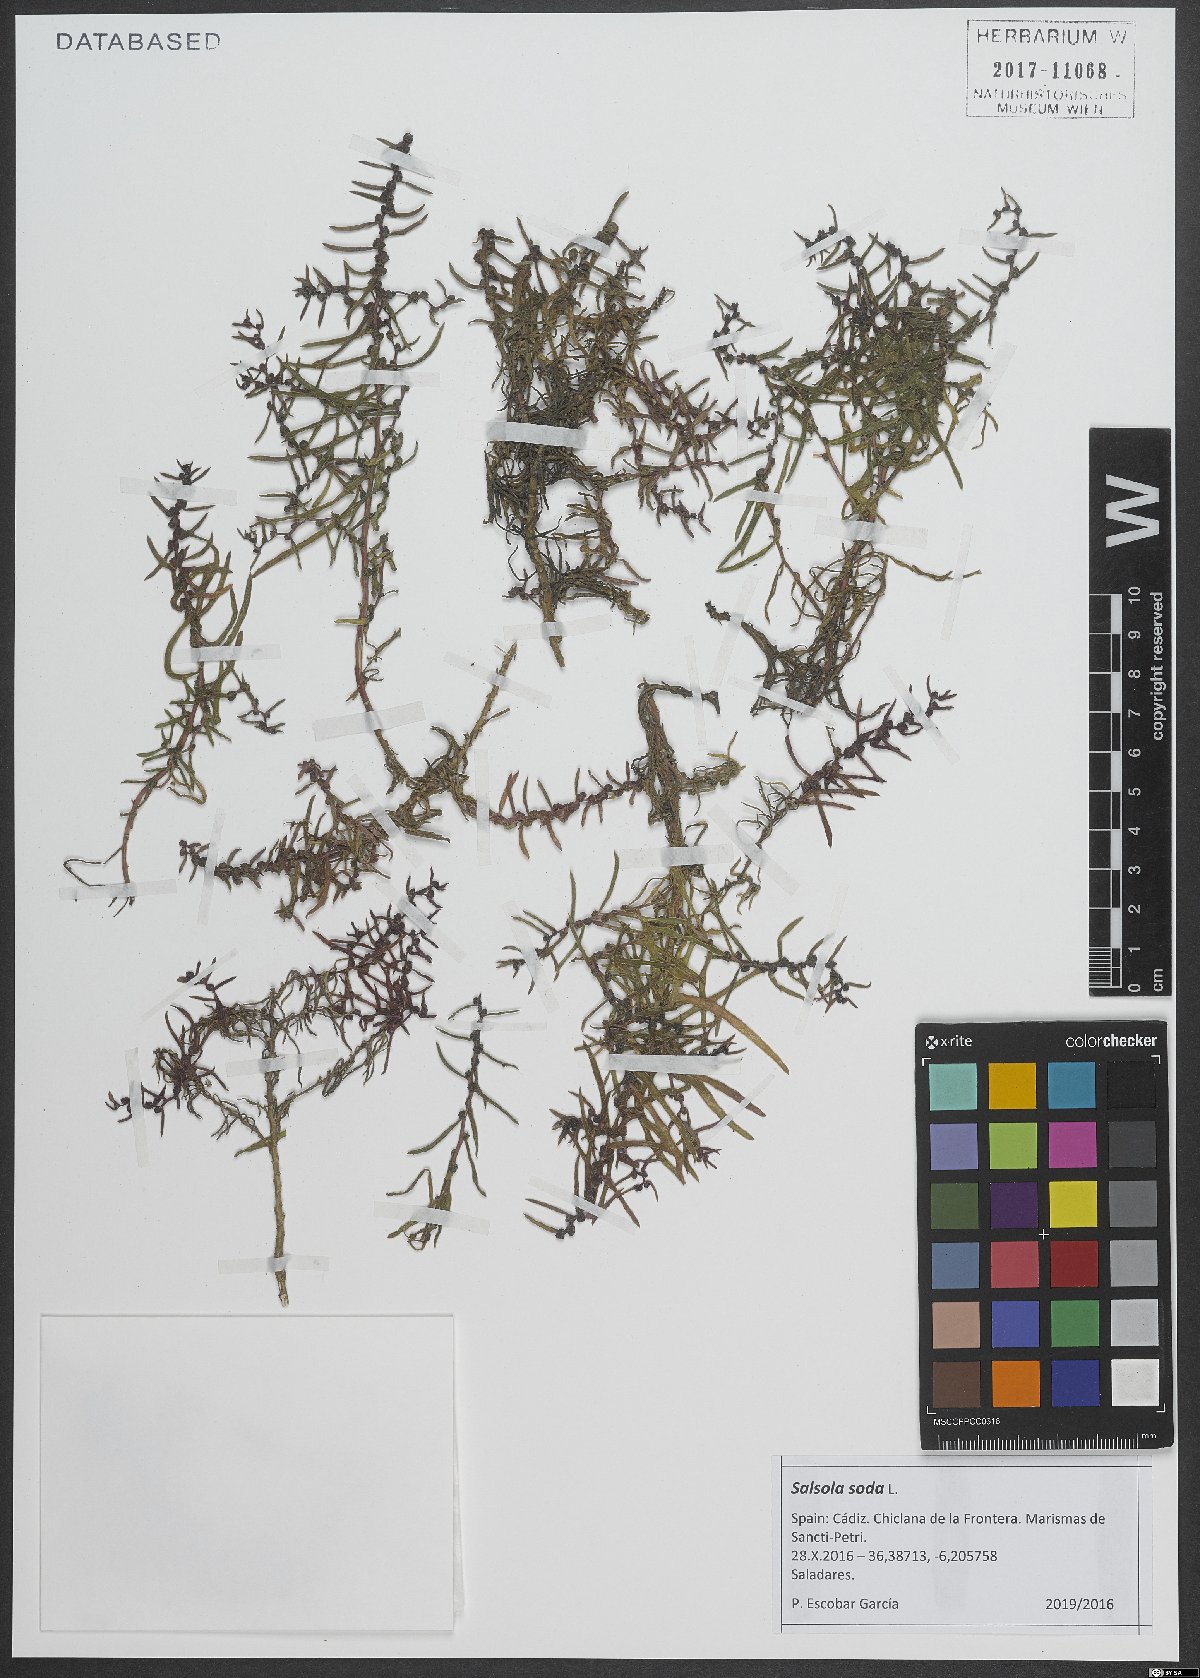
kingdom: Plantae
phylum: Tracheophyta
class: Magnoliopsida
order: Caryophyllales
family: Amaranthaceae
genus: Soda
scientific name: Soda inermis
